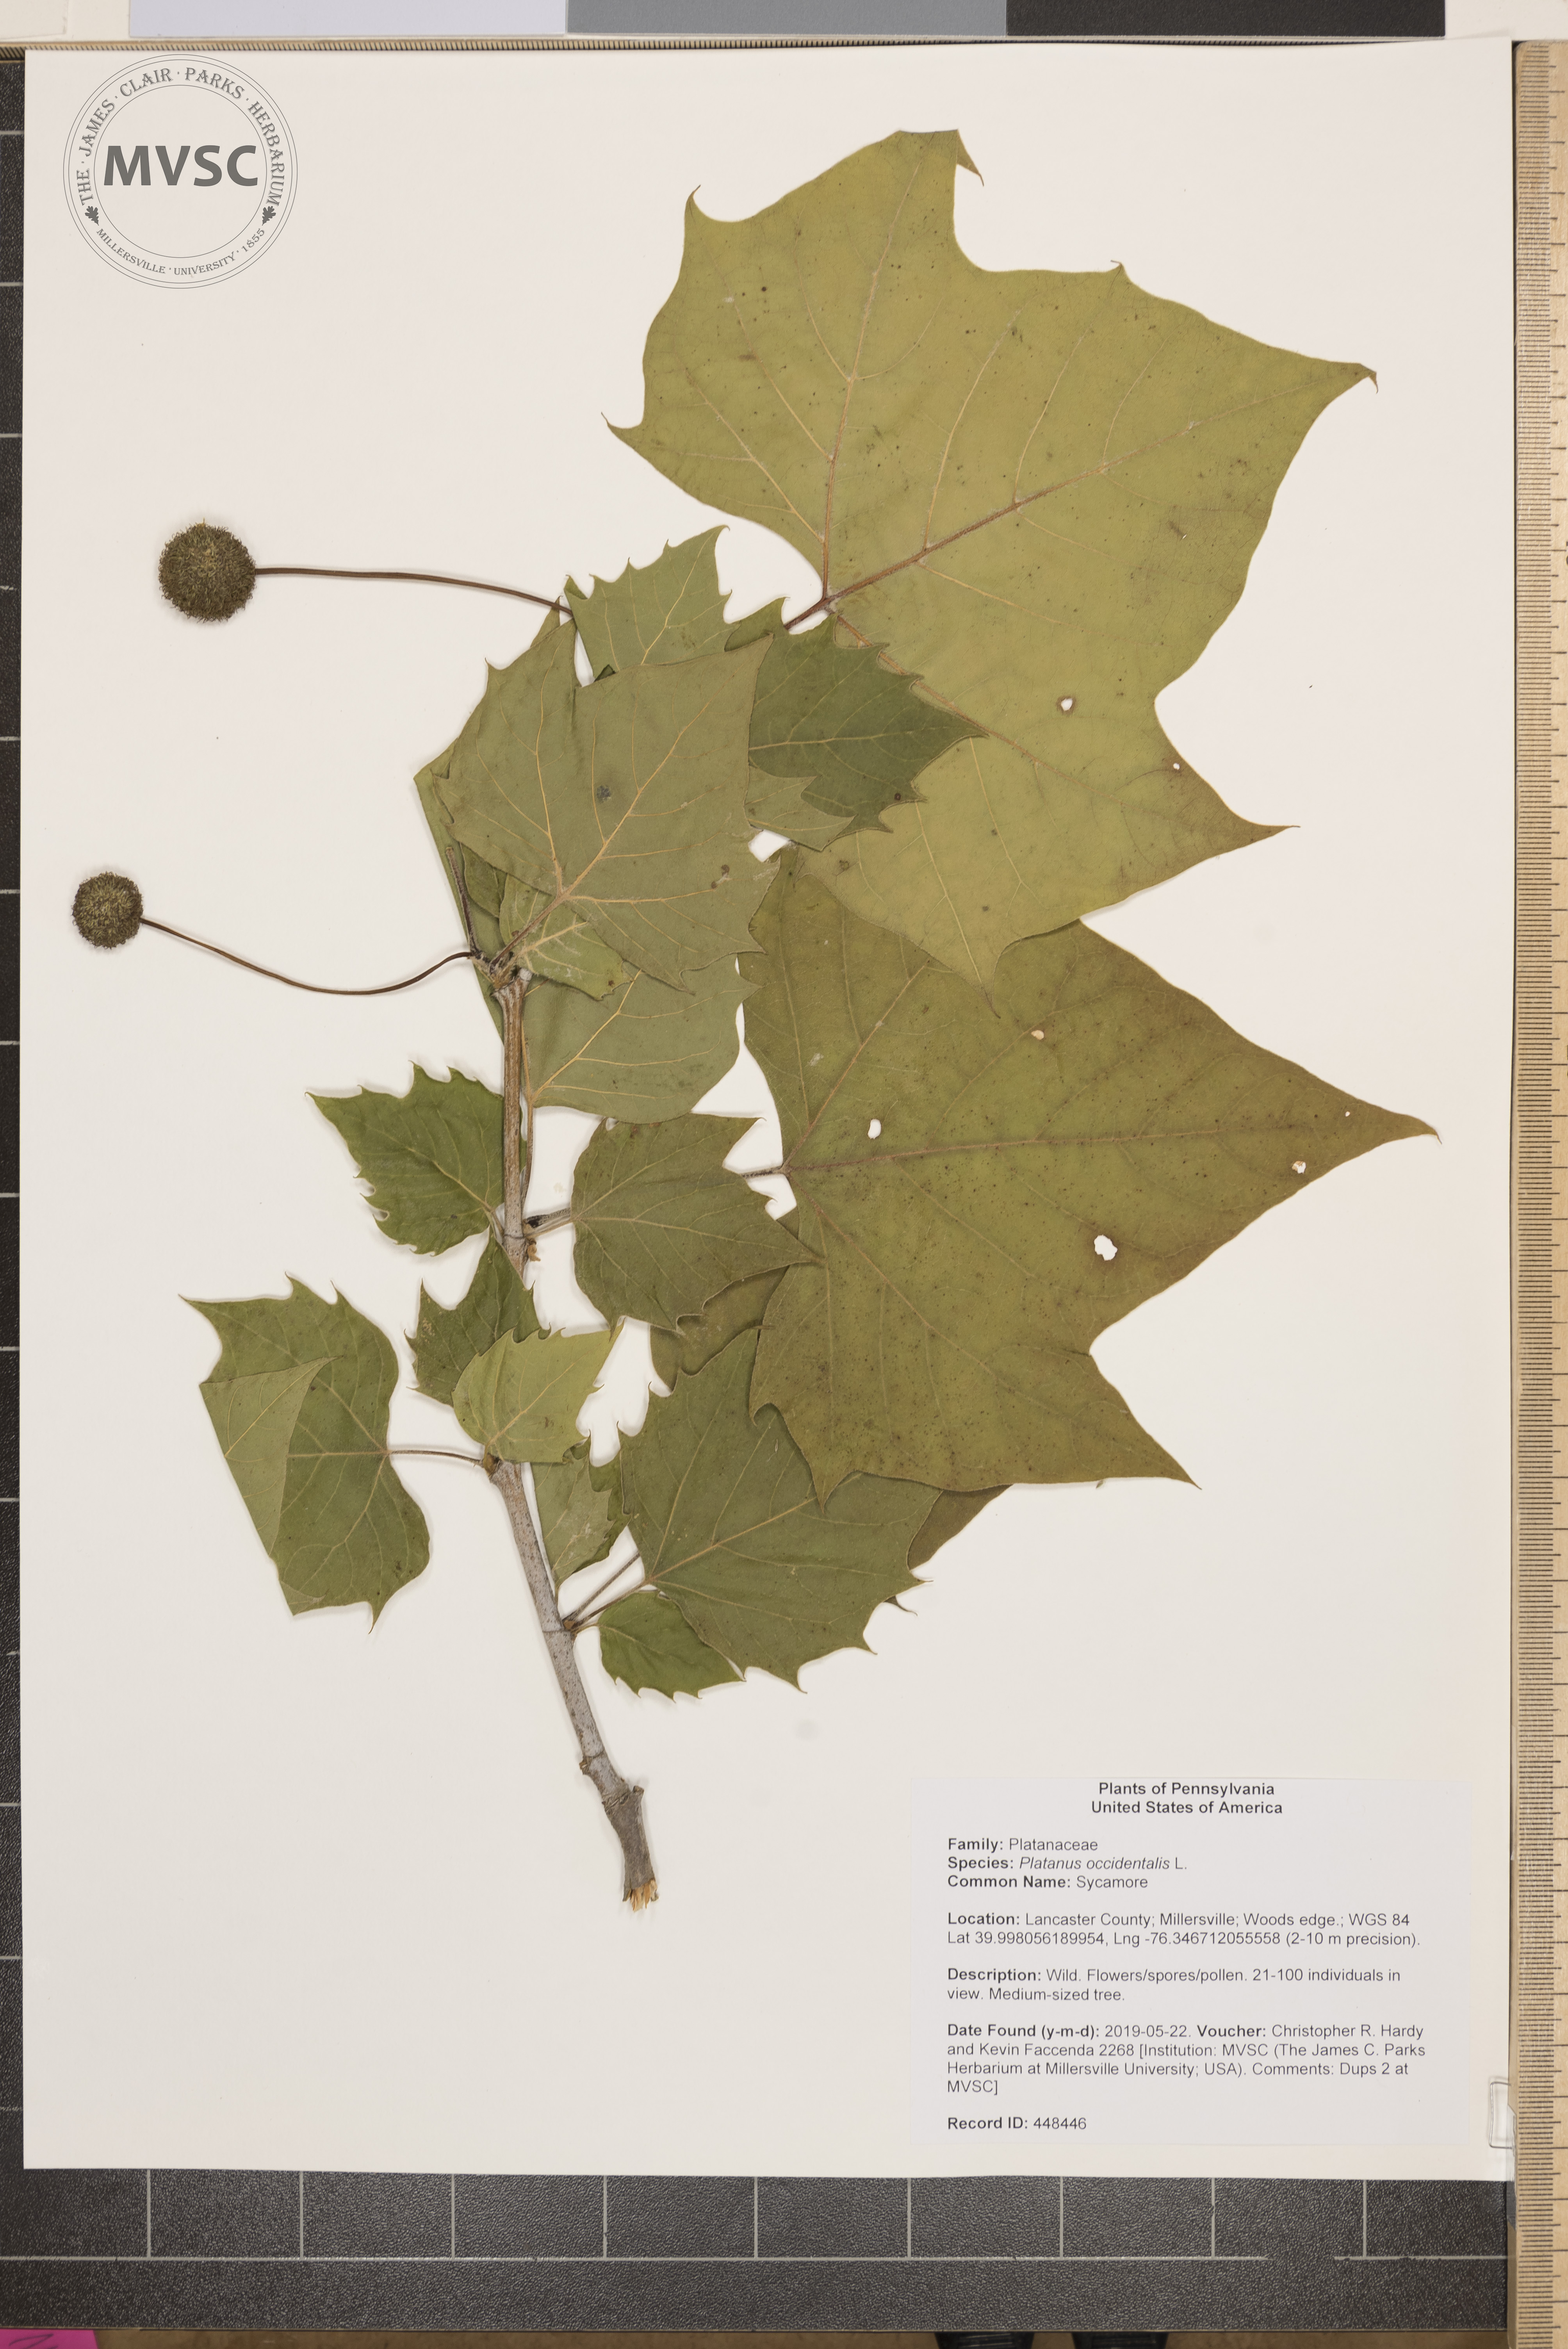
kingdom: Plantae
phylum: Tracheophyta
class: Magnoliopsida
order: Proteales
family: Platanaceae
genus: Platanus
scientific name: Platanus occidentalis
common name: Sycamore
